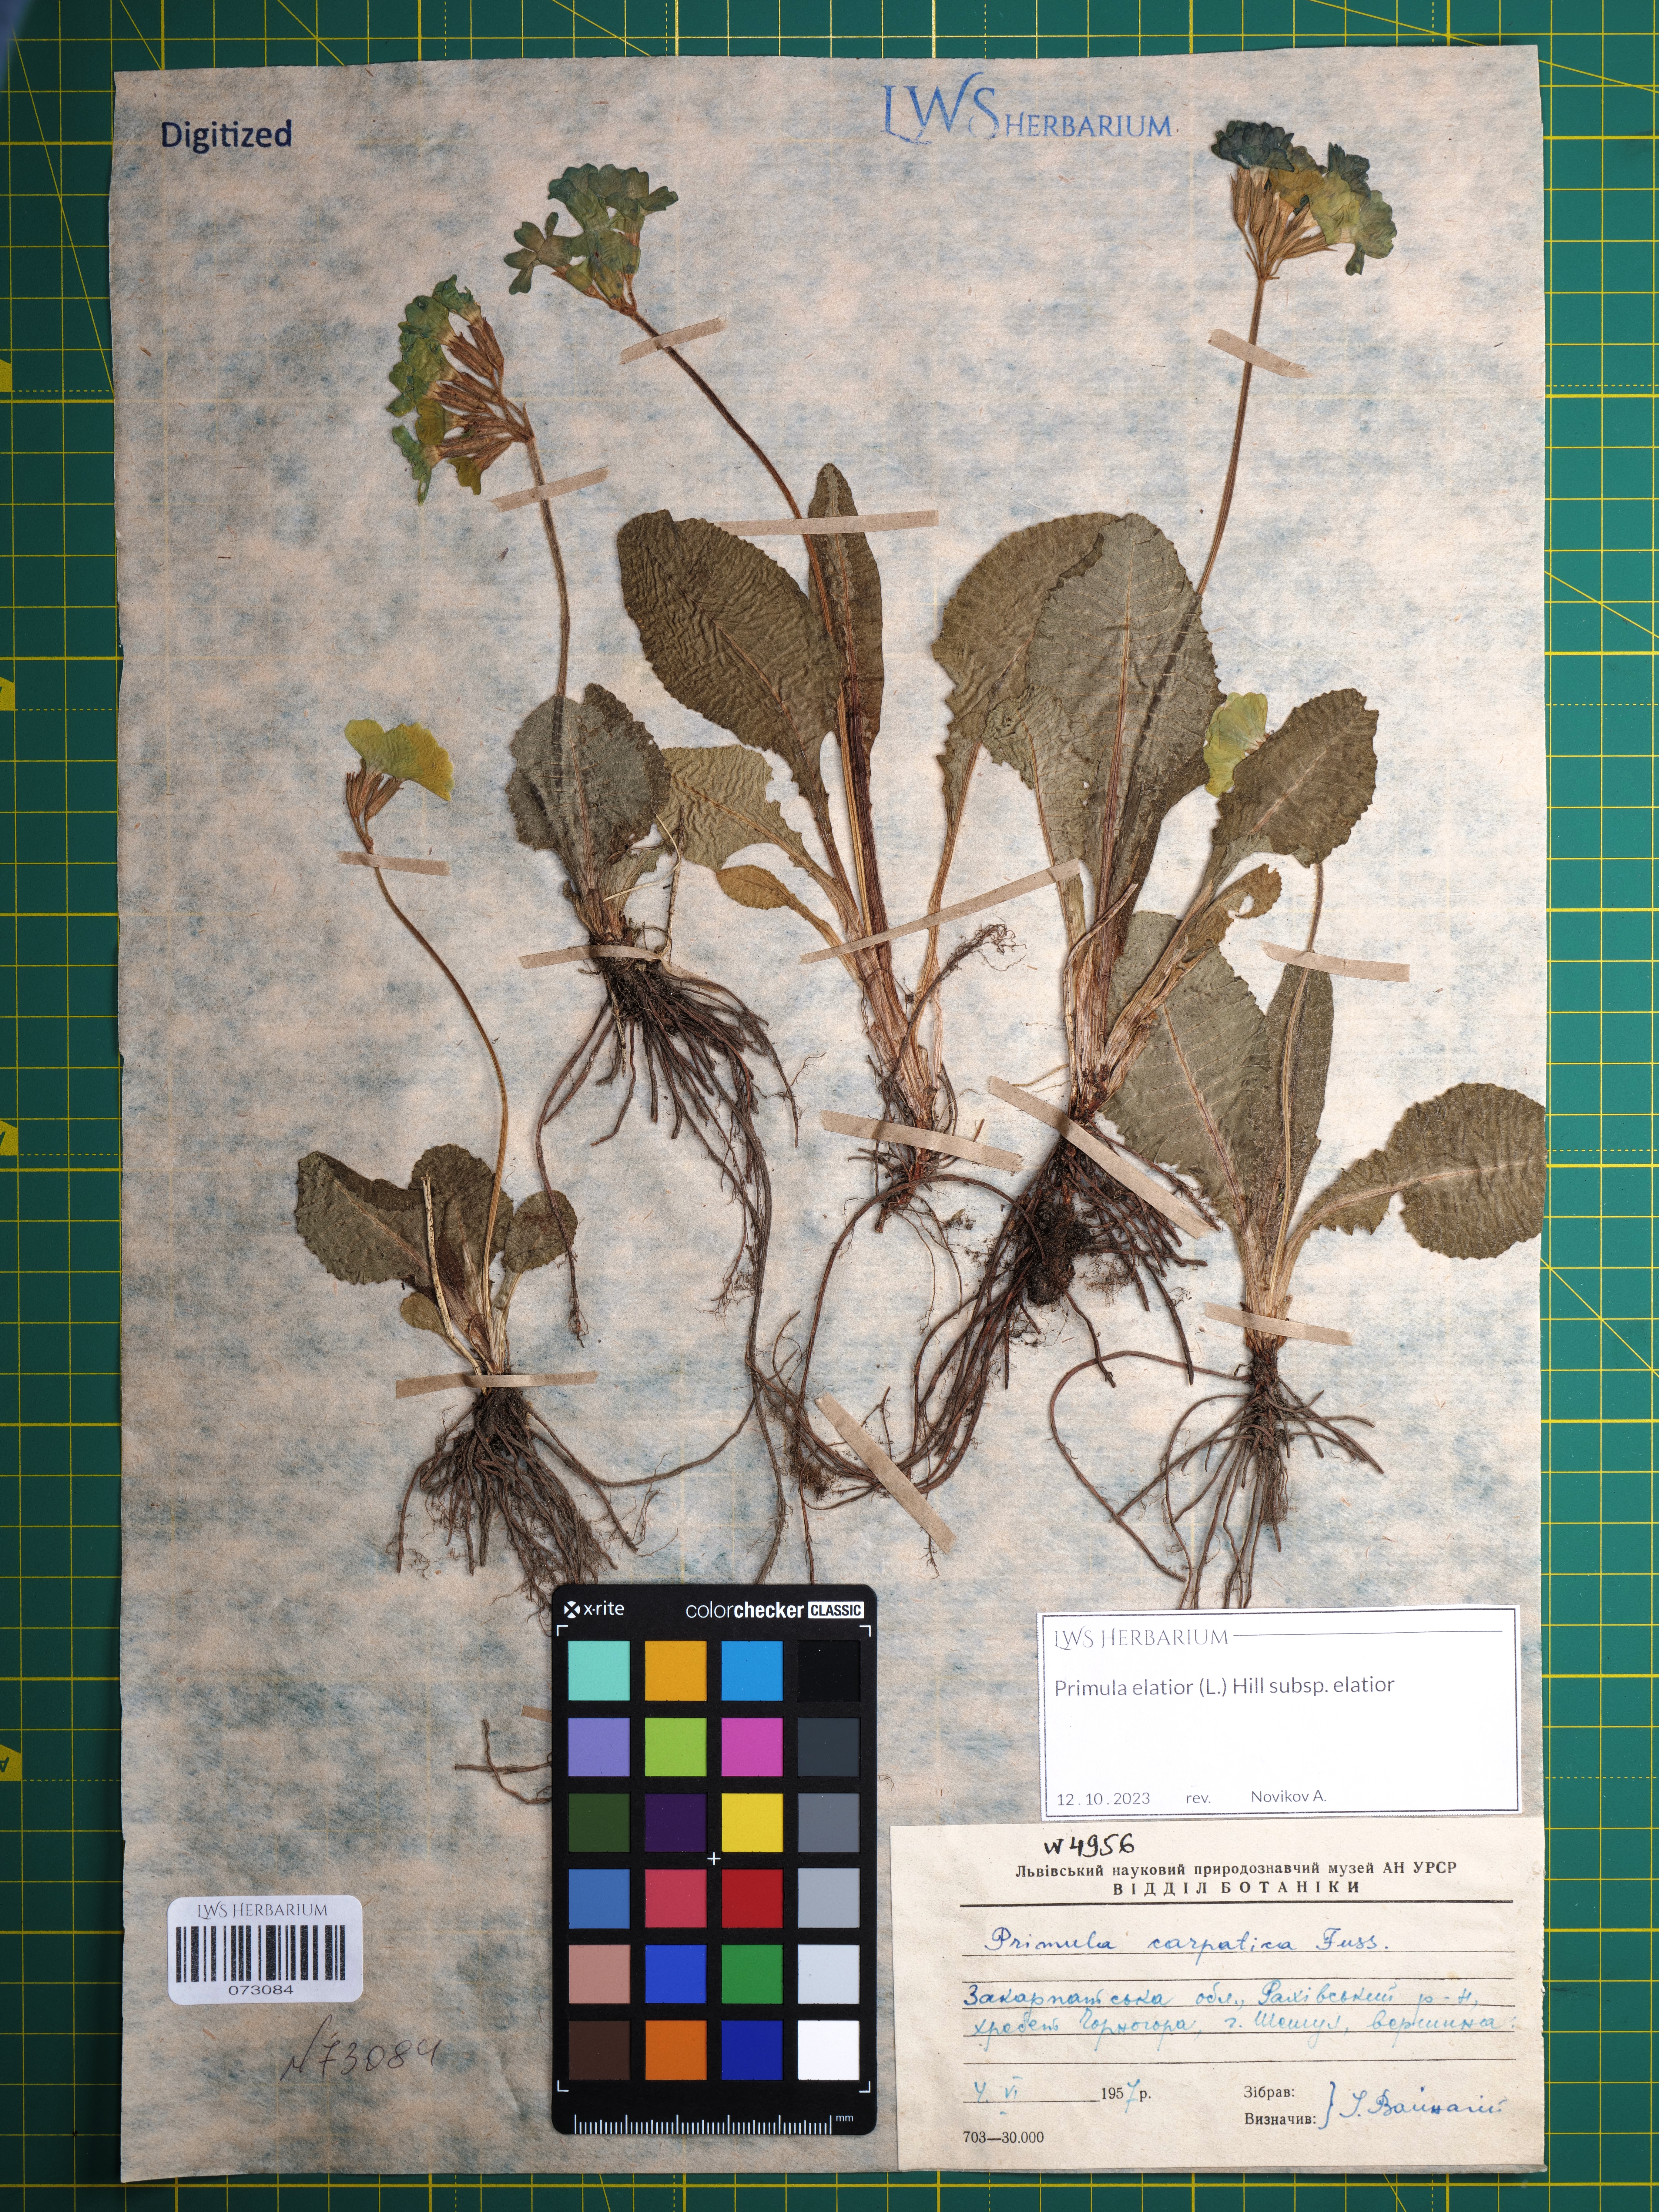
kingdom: Plantae
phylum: Tracheophyta
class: Magnoliopsida
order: Ericales
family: Primulaceae
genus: Primula
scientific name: Primula elatior
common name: Oxlip
